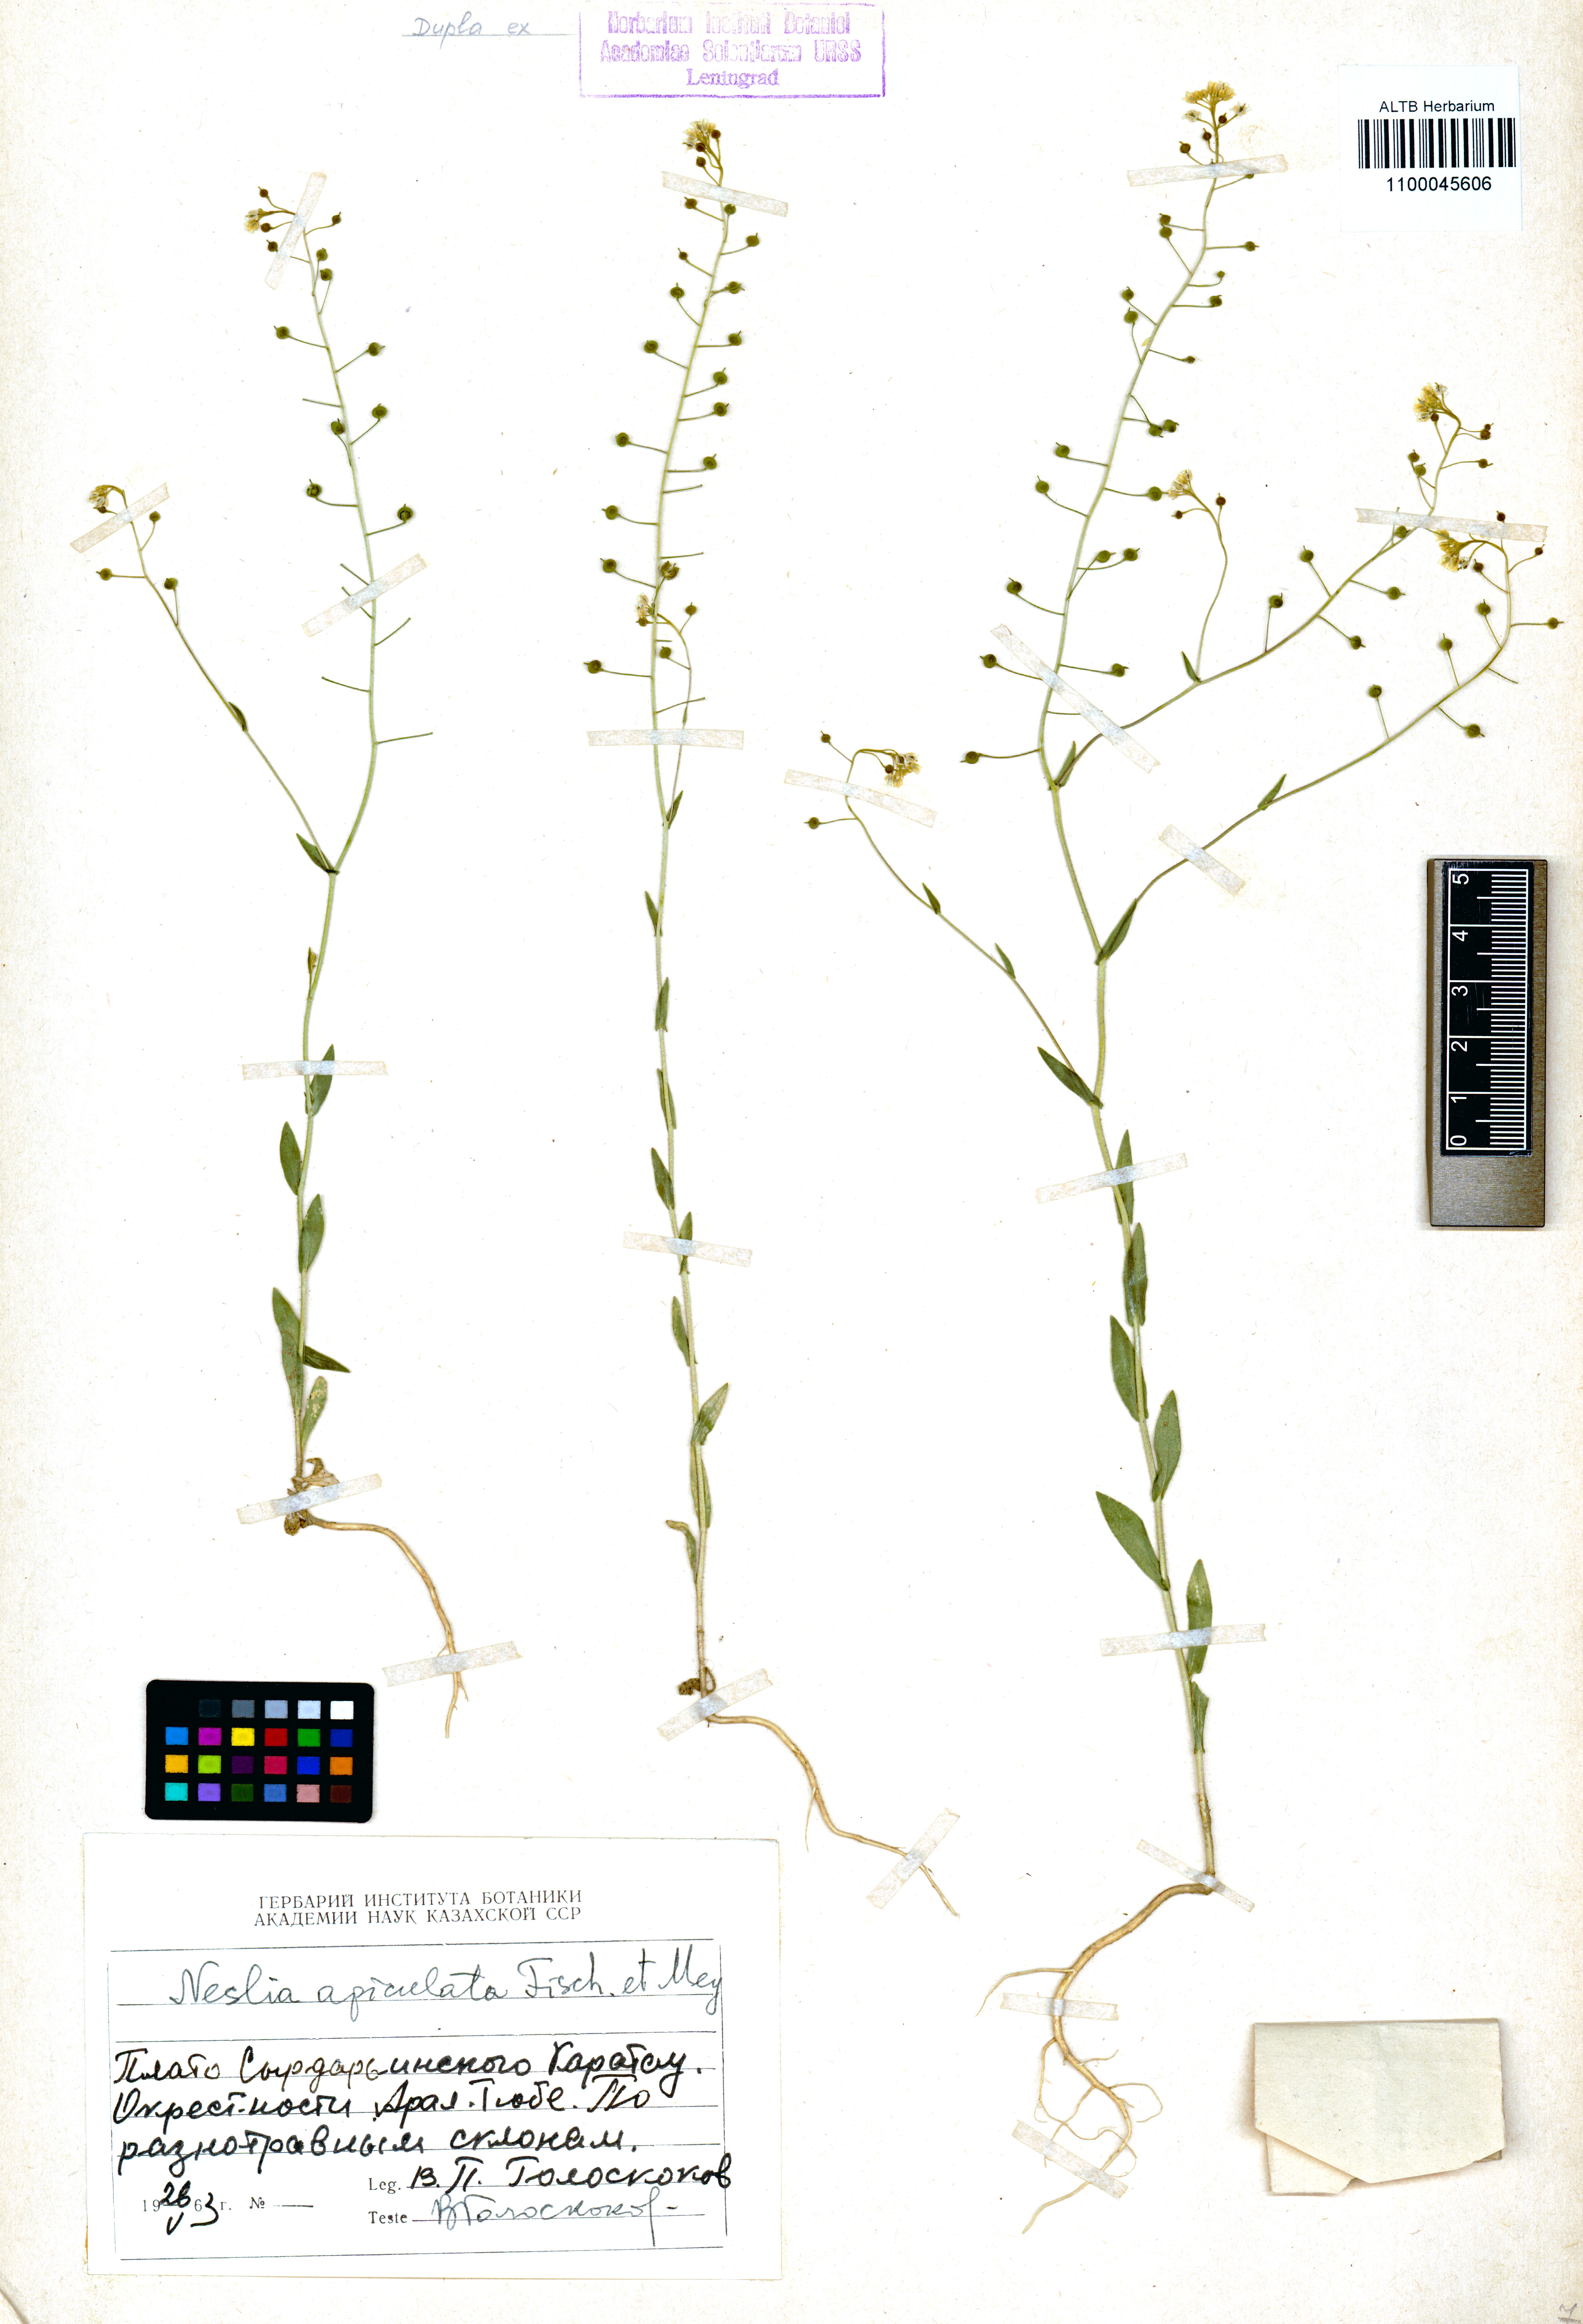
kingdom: Plantae
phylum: Tracheophyta
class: Magnoliopsida
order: Brassicales
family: Brassicaceae
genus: Neslia
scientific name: Neslia paniculata
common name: Ball mustard
